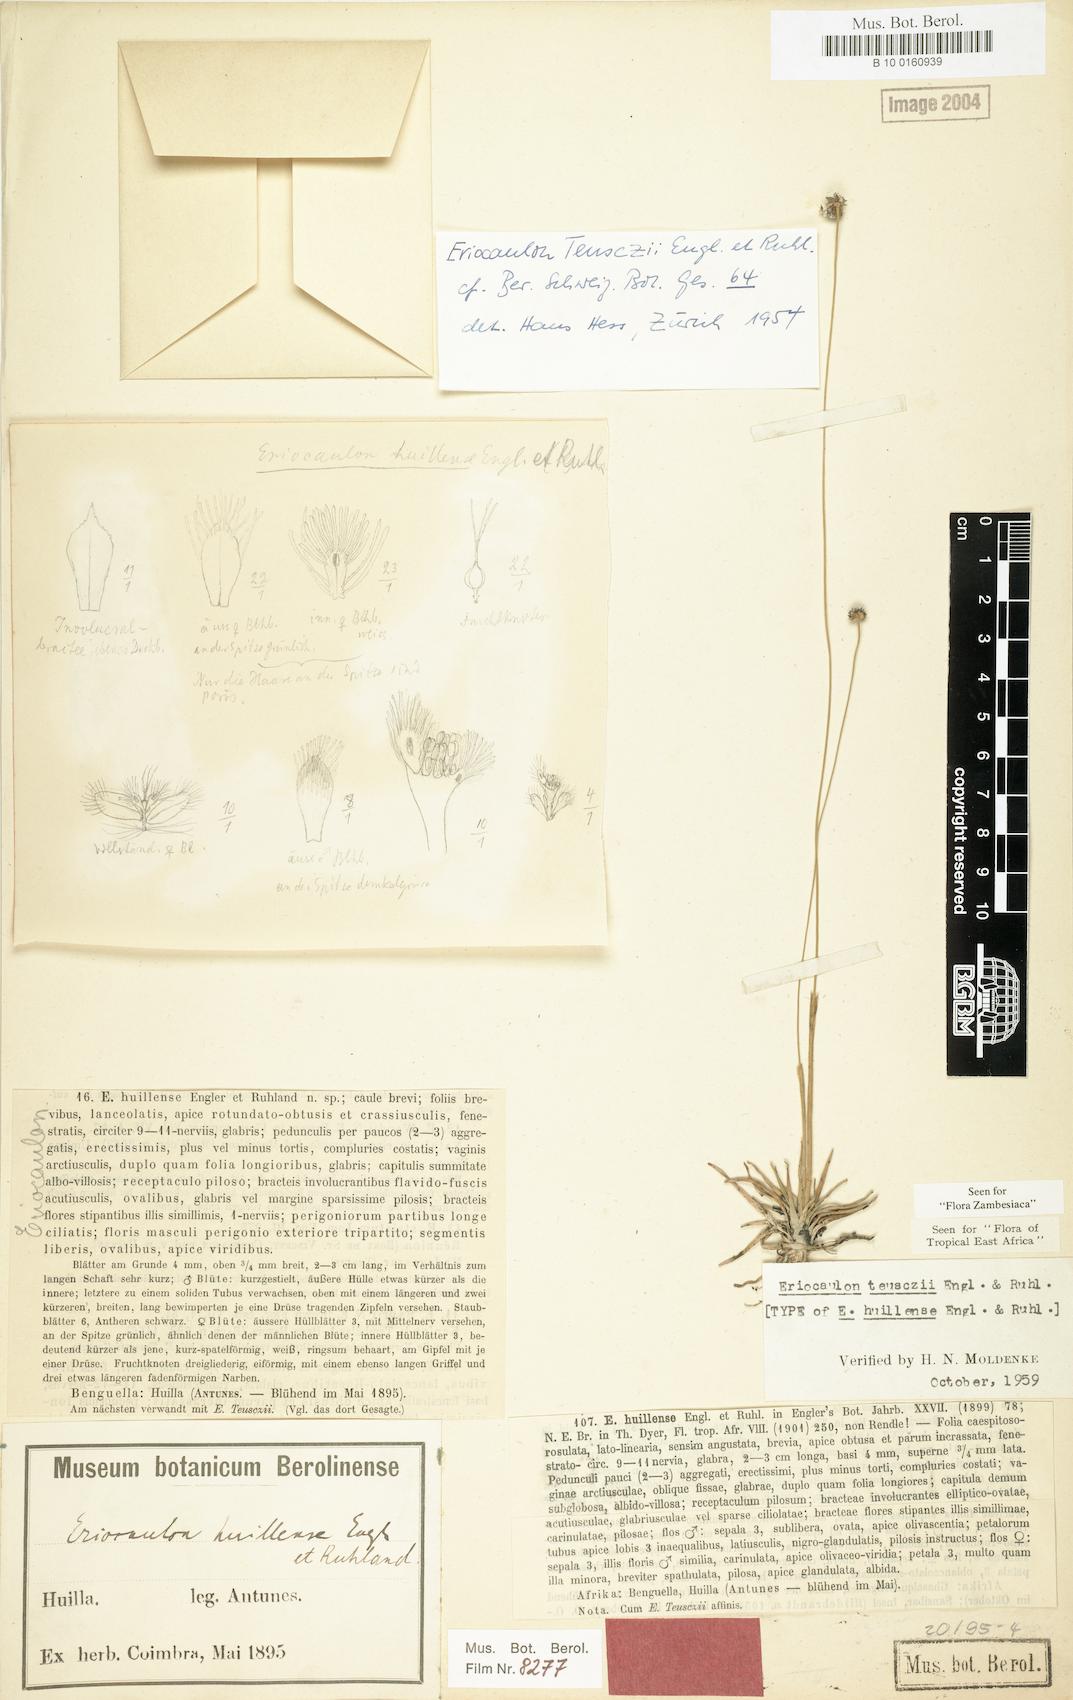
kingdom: Plantae
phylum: Tracheophyta
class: Liliopsida
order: Poales
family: Eriocaulaceae
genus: Eriocaulon
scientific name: Eriocaulon teusczii
